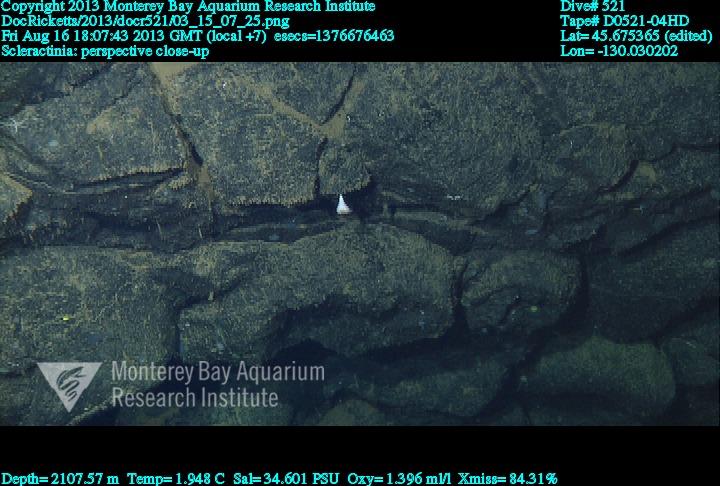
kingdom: Animalia
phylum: Cnidaria
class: Anthozoa
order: Scleractinia
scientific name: Scleractinia
